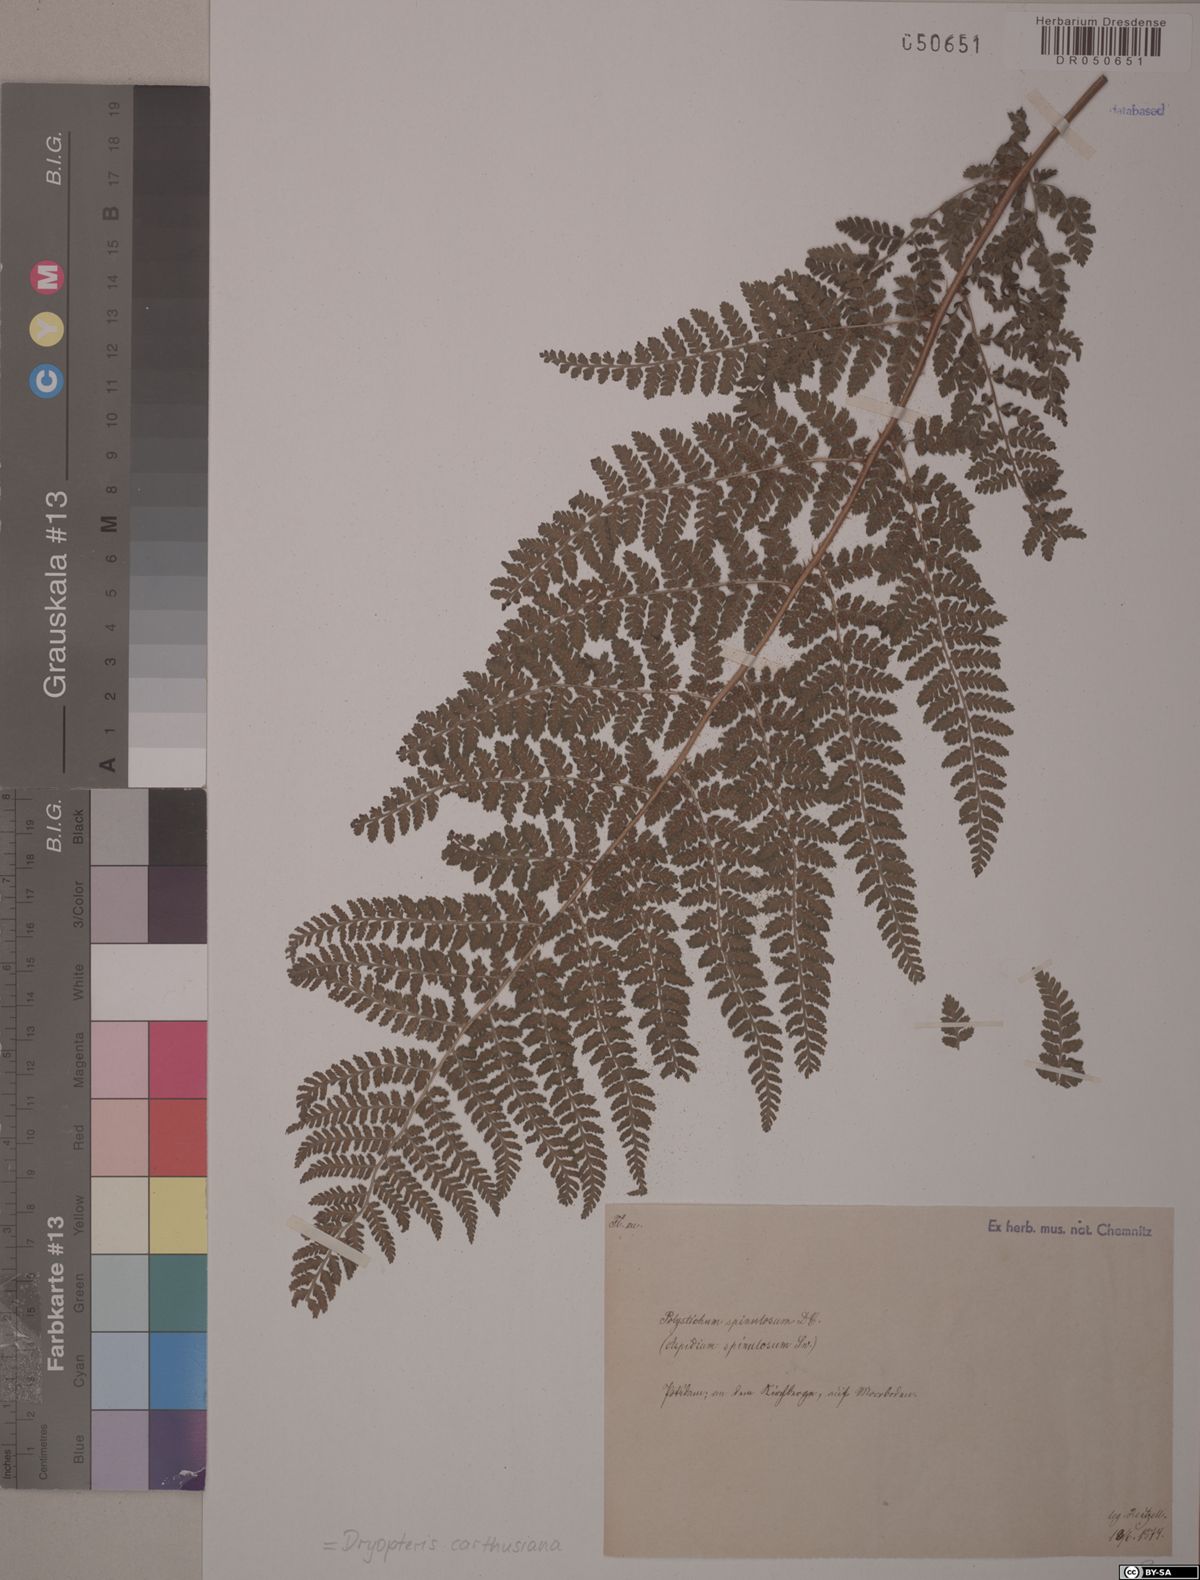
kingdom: Plantae
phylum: Tracheophyta
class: Polypodiopsida
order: Polypodiales
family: Dryopteridaceae
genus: Dryopteris
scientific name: Dryopteris carthusiana
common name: Narrow buckler-fern
